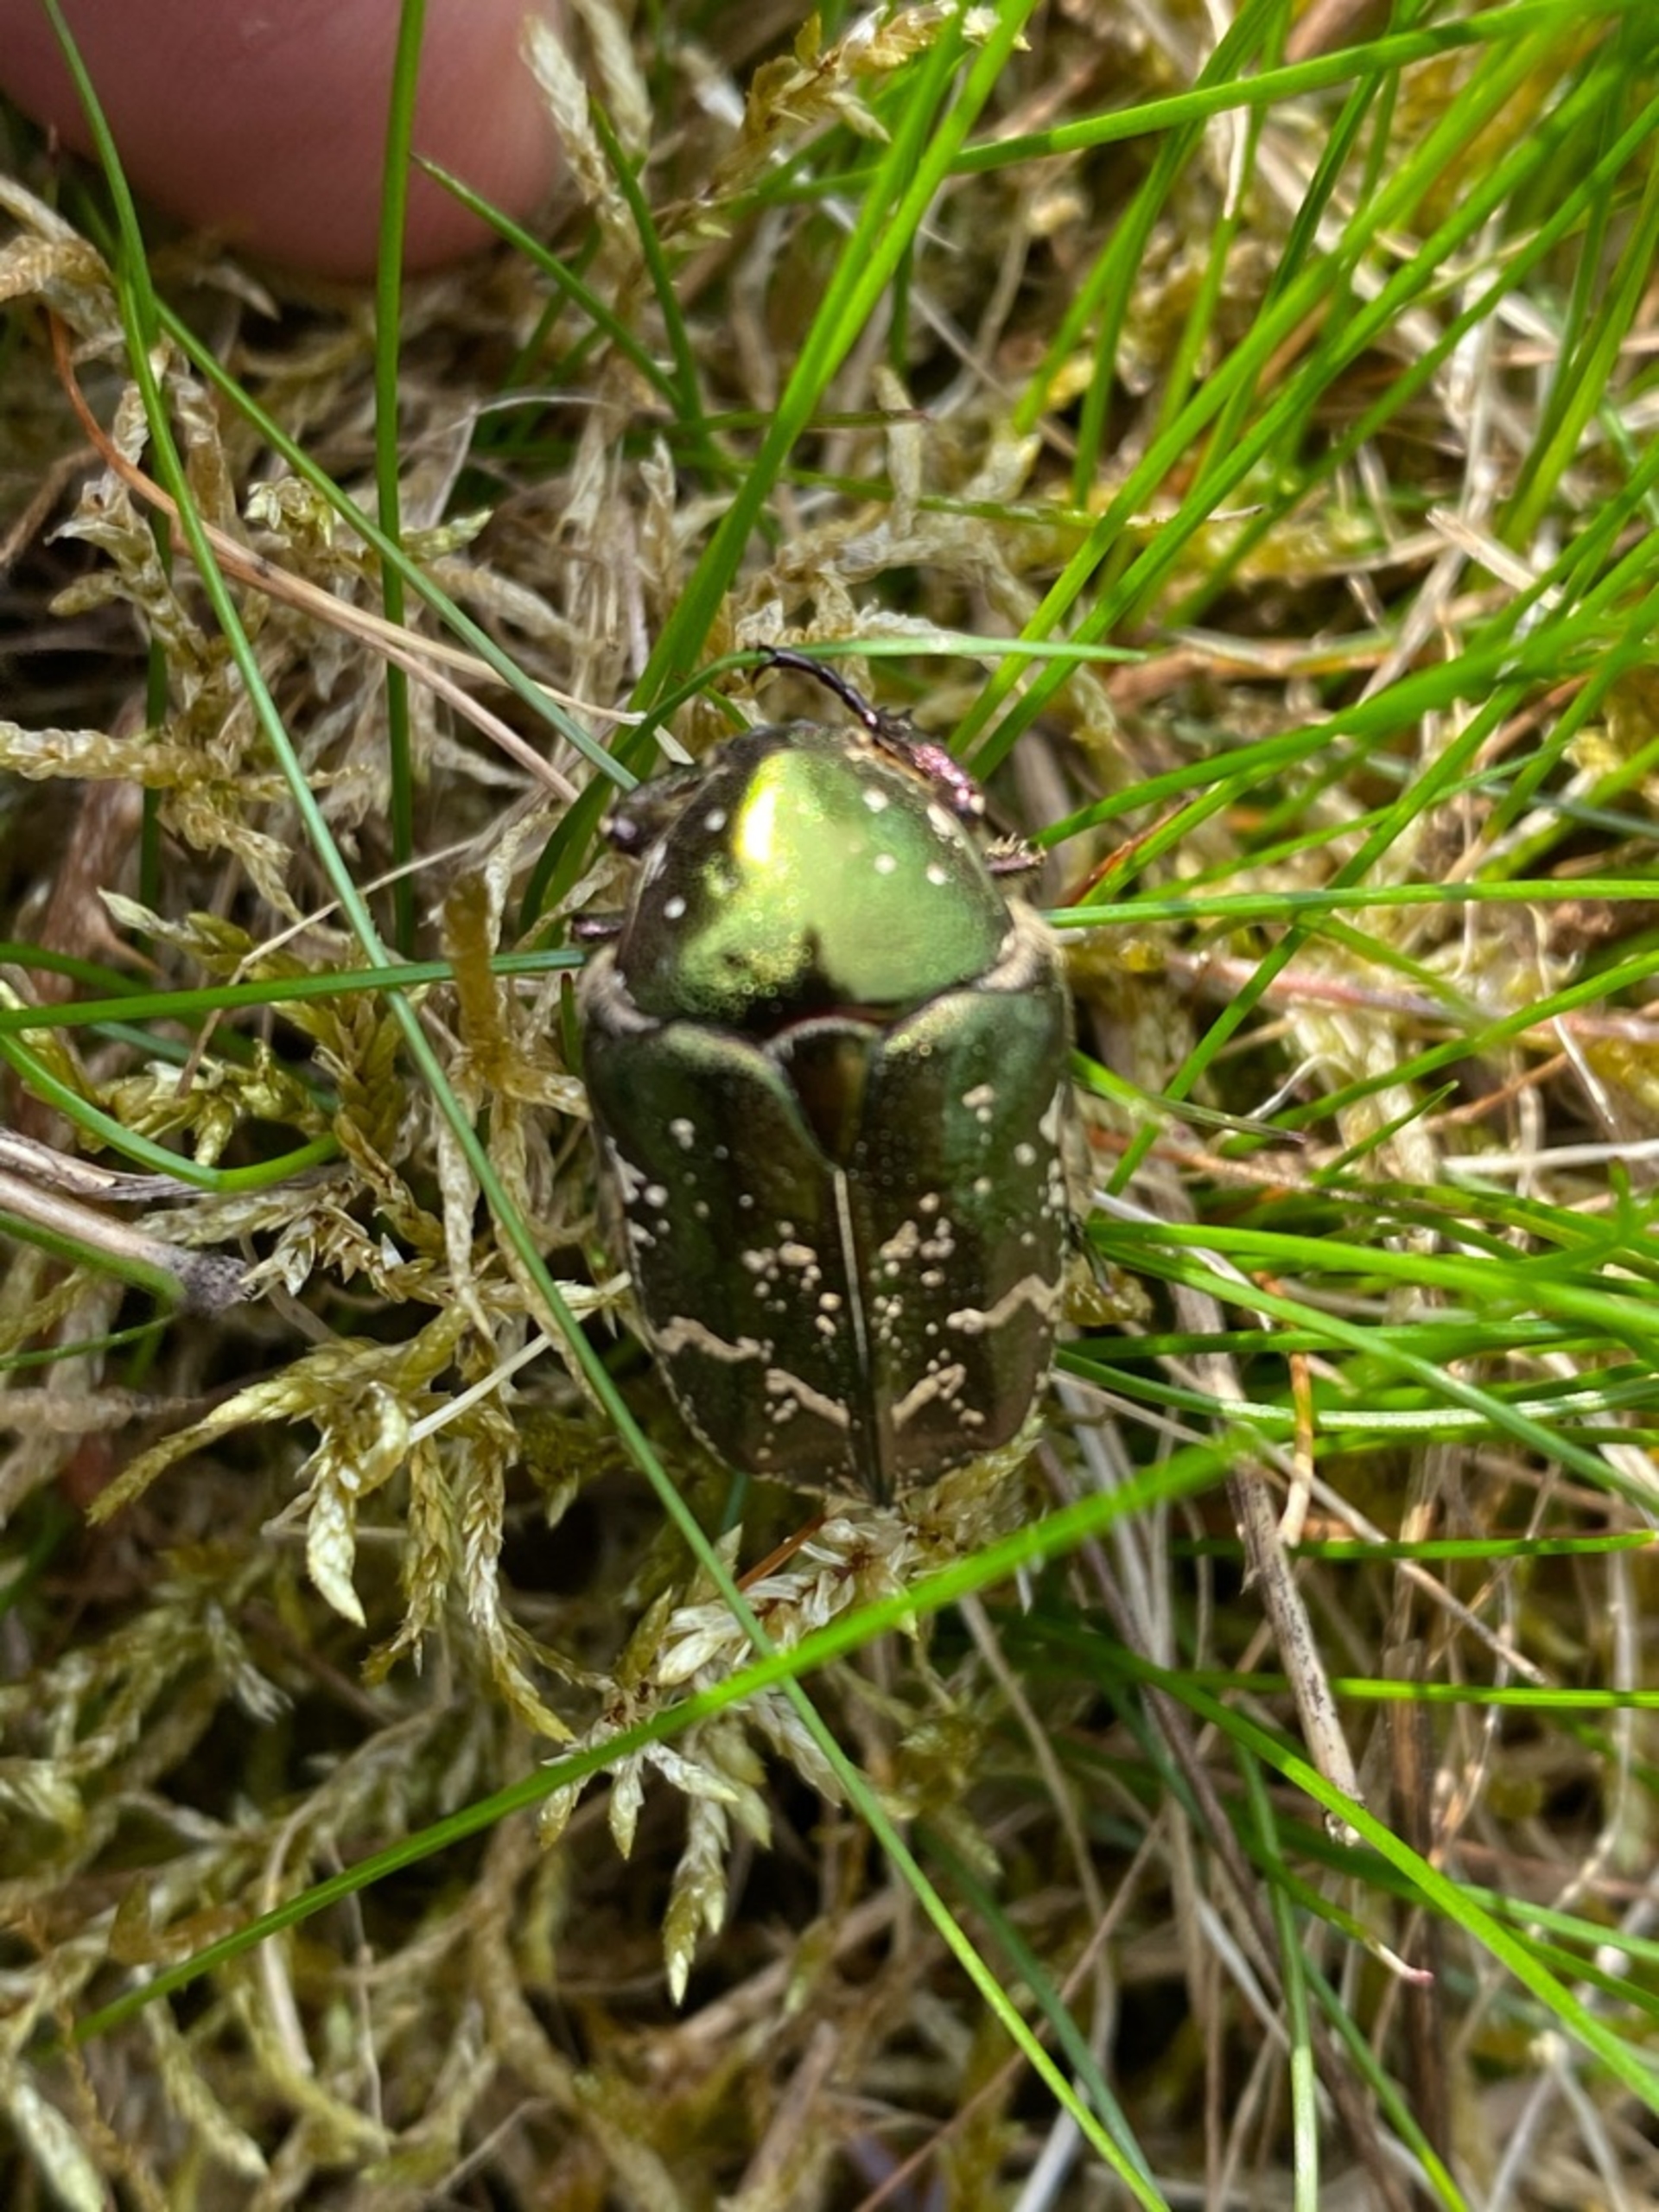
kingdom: Animalia
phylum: Arthropoda
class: Insecta
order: Coleoptera
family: Scarabaeidae
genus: Protaetia
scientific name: Protaetia cuprea
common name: Kobberguldbasse
